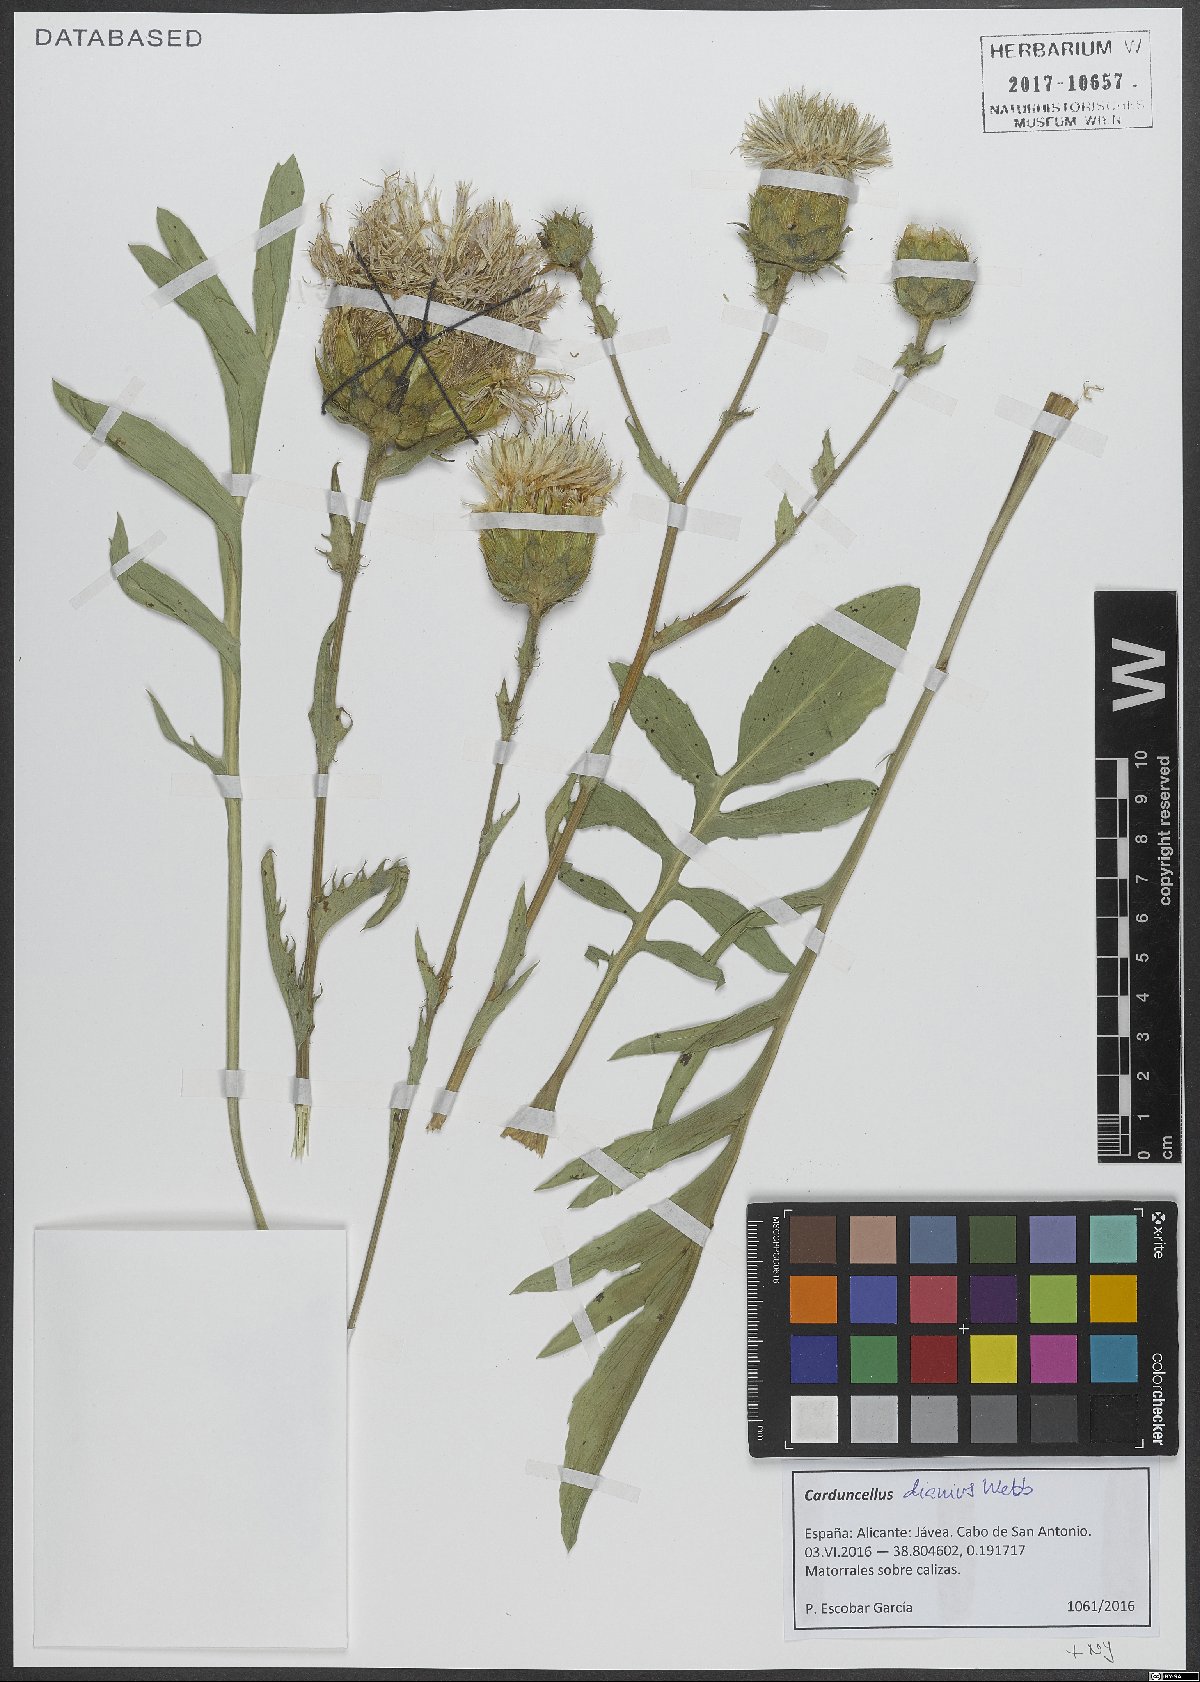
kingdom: Plantae
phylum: Tracheophyta
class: Magnoliopsida
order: Asterales
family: Asteraceae
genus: Carduncellus
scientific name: Carduncellus dianius
